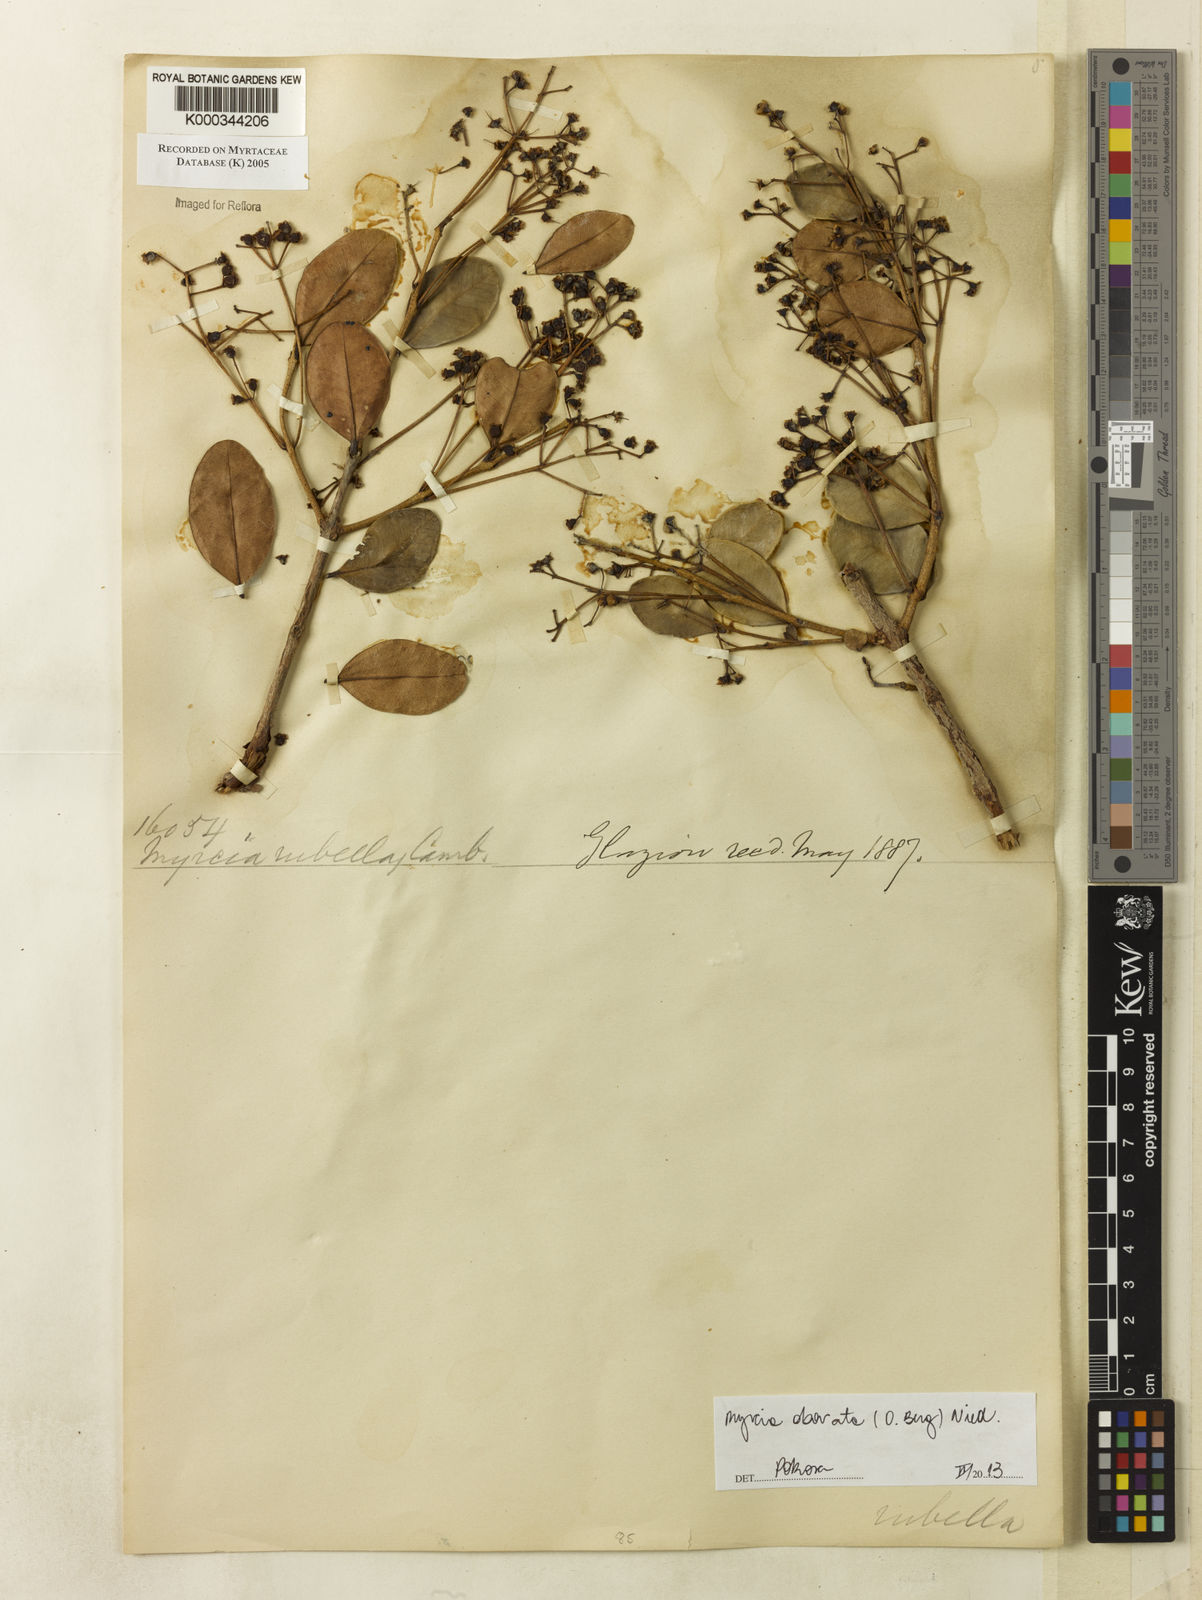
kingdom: Plantae
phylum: Tracheophyta
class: Magnoliopsida
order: Myrtales
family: Myrtaceae
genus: Myrcia
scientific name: Myrcia rubella
